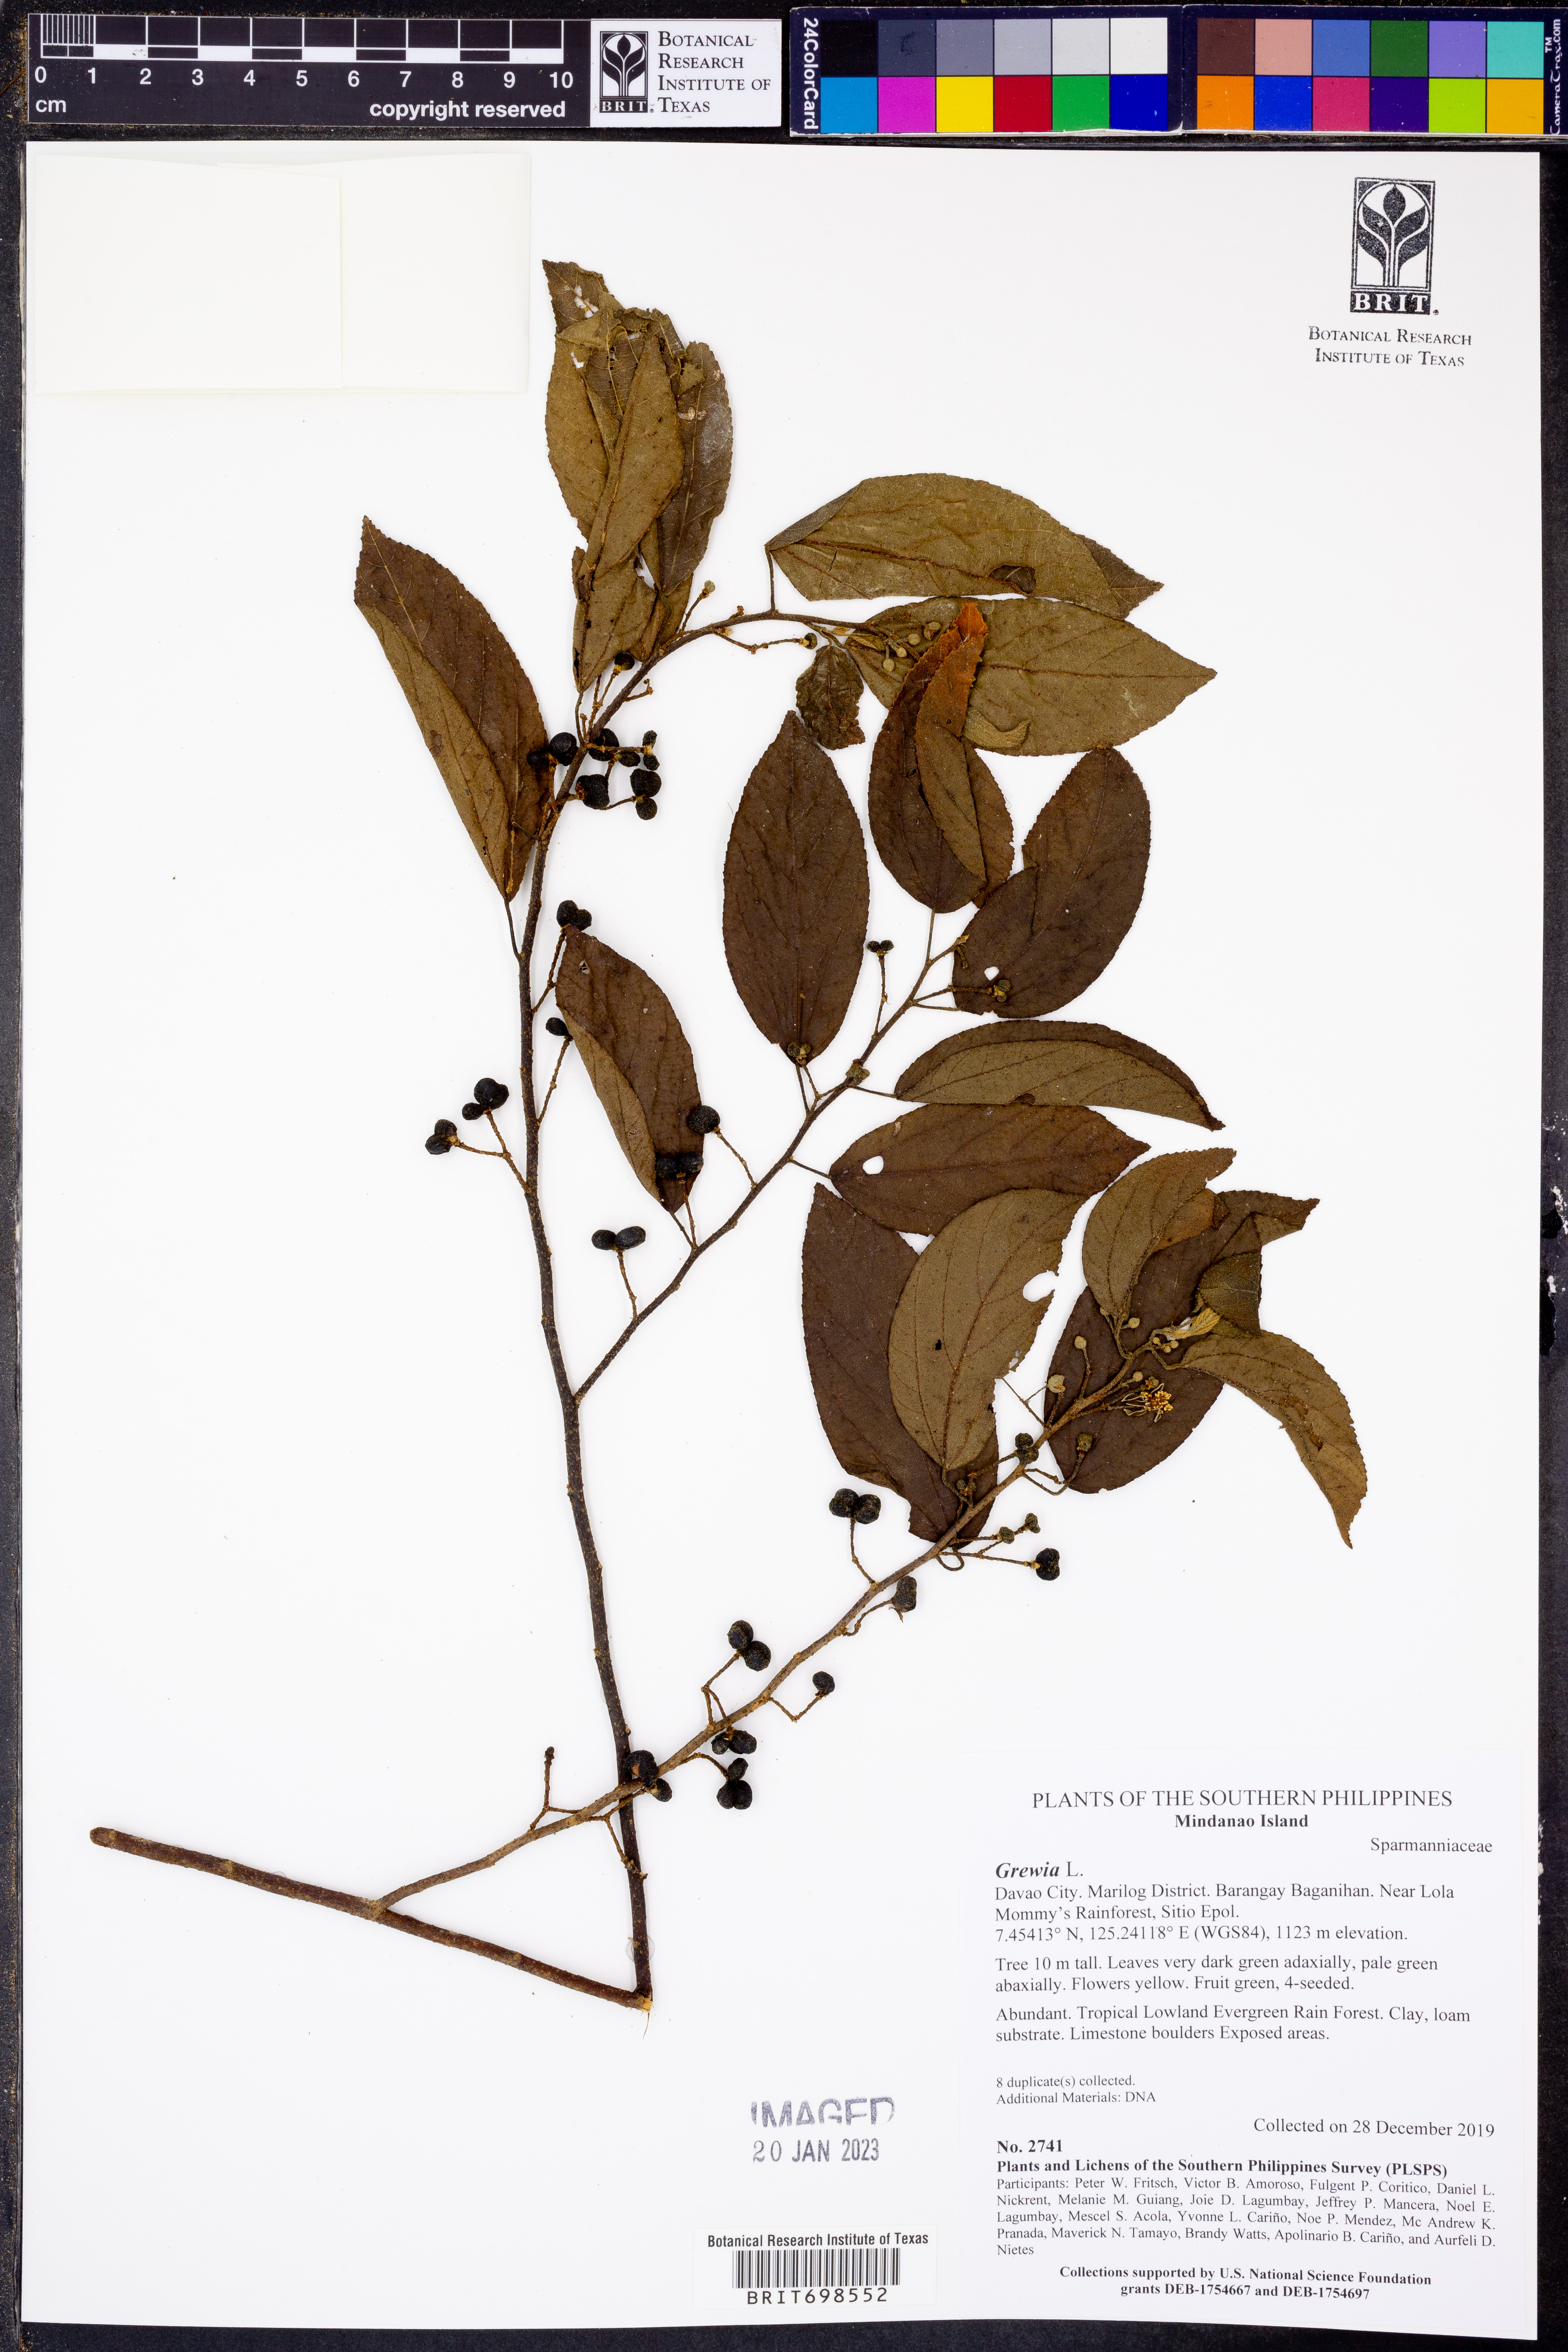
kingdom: Plantae
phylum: Tracheophyta
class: Magnoliopsida
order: Malvales
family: Malvaceae
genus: Grewia
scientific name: Grewia
